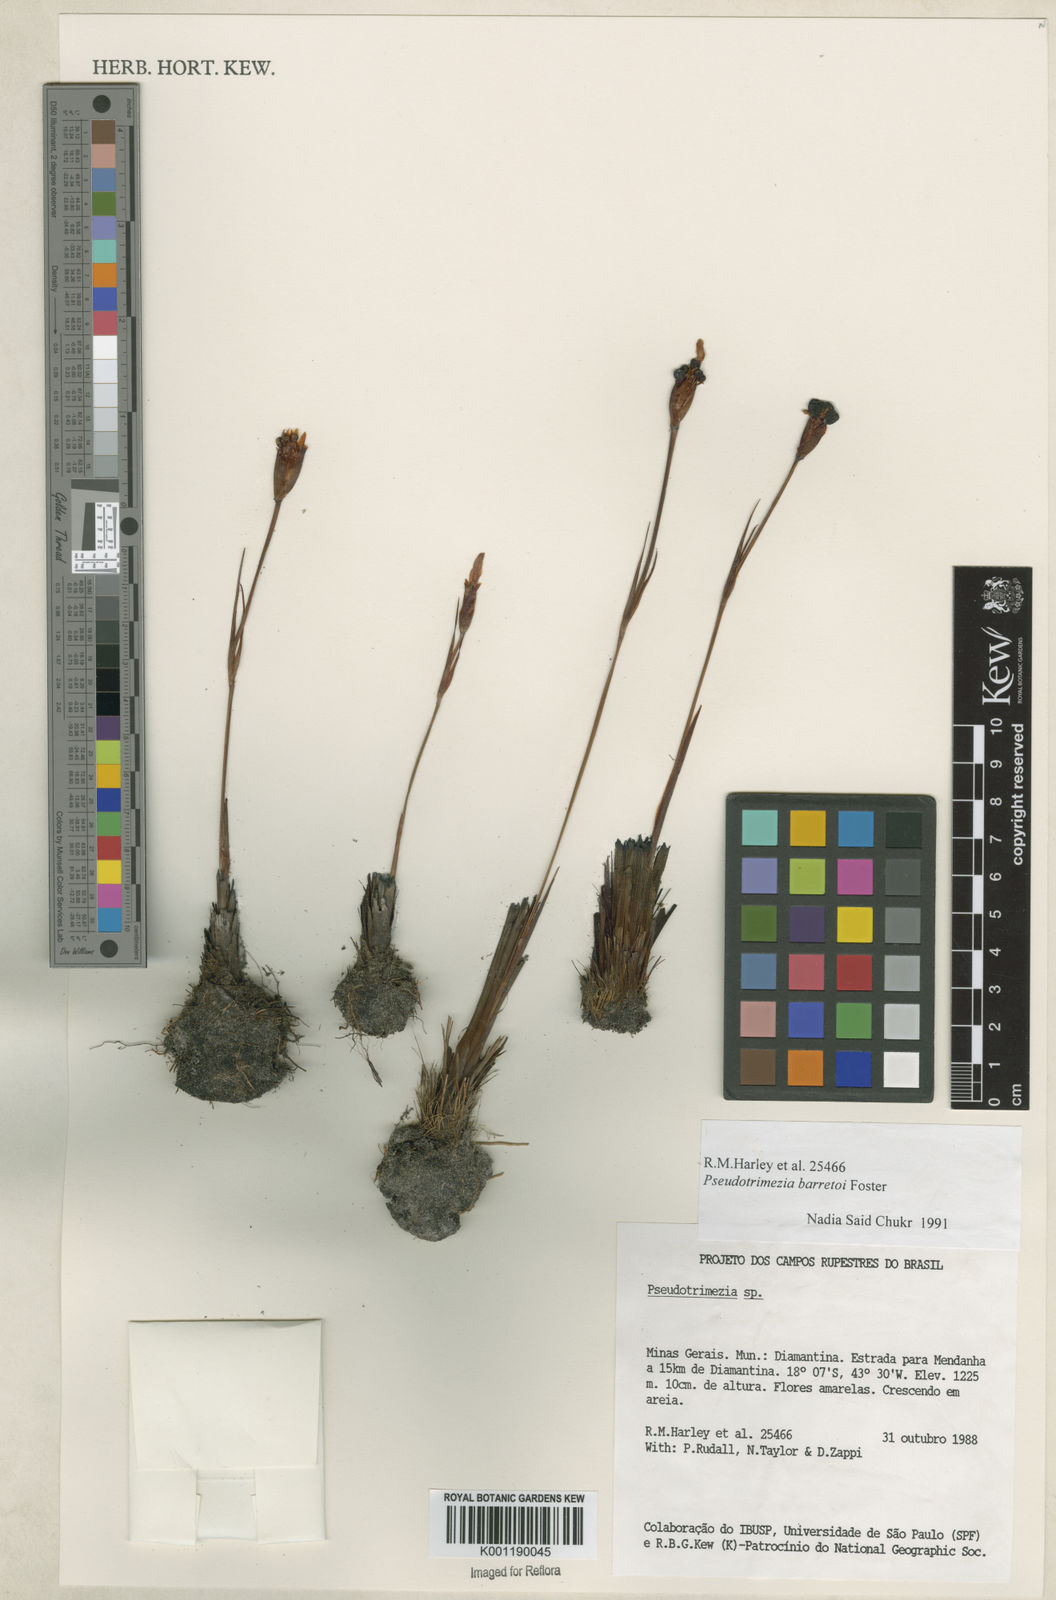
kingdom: Plantae
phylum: Tracheophyta
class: Liliopsida
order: Asparagales
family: Iridaceae
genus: Trimezia
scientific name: Trimezia barretoi
